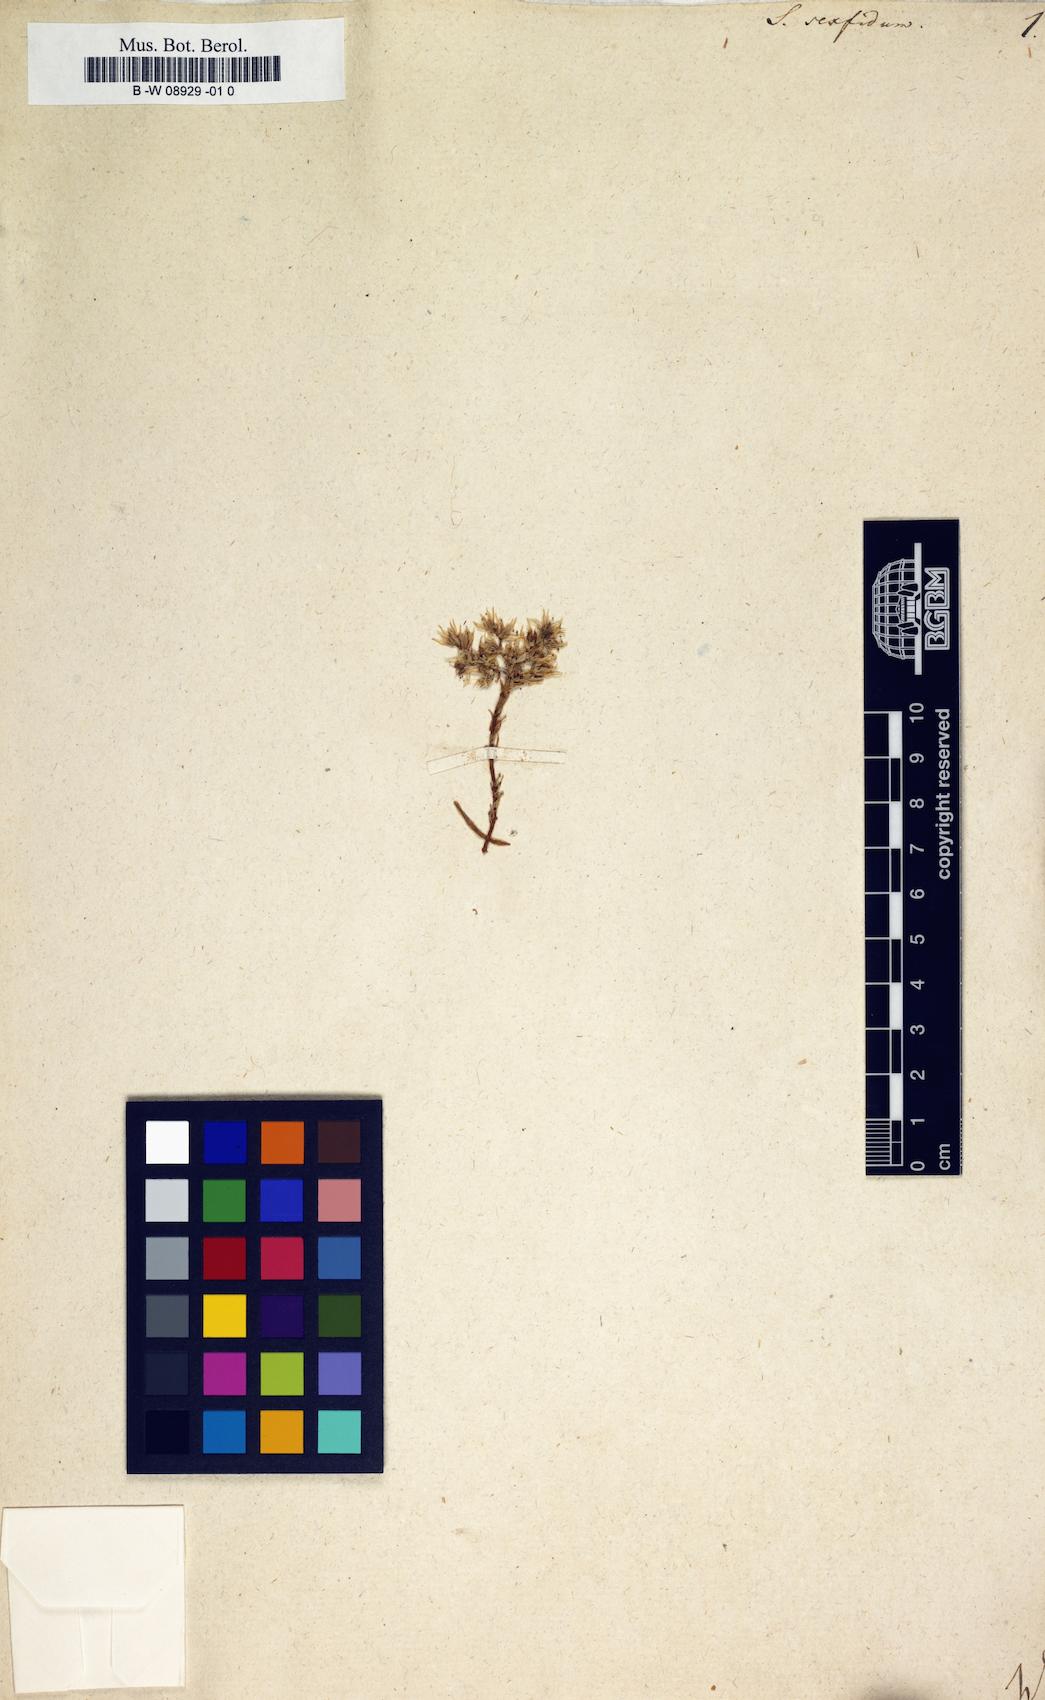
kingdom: Plantae
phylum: Tracheophyta
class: Magnoliopsida
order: Saxifragales
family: Crassulaceae
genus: Sedum
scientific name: Sedum hispanicum
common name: Spanish stonecrop
